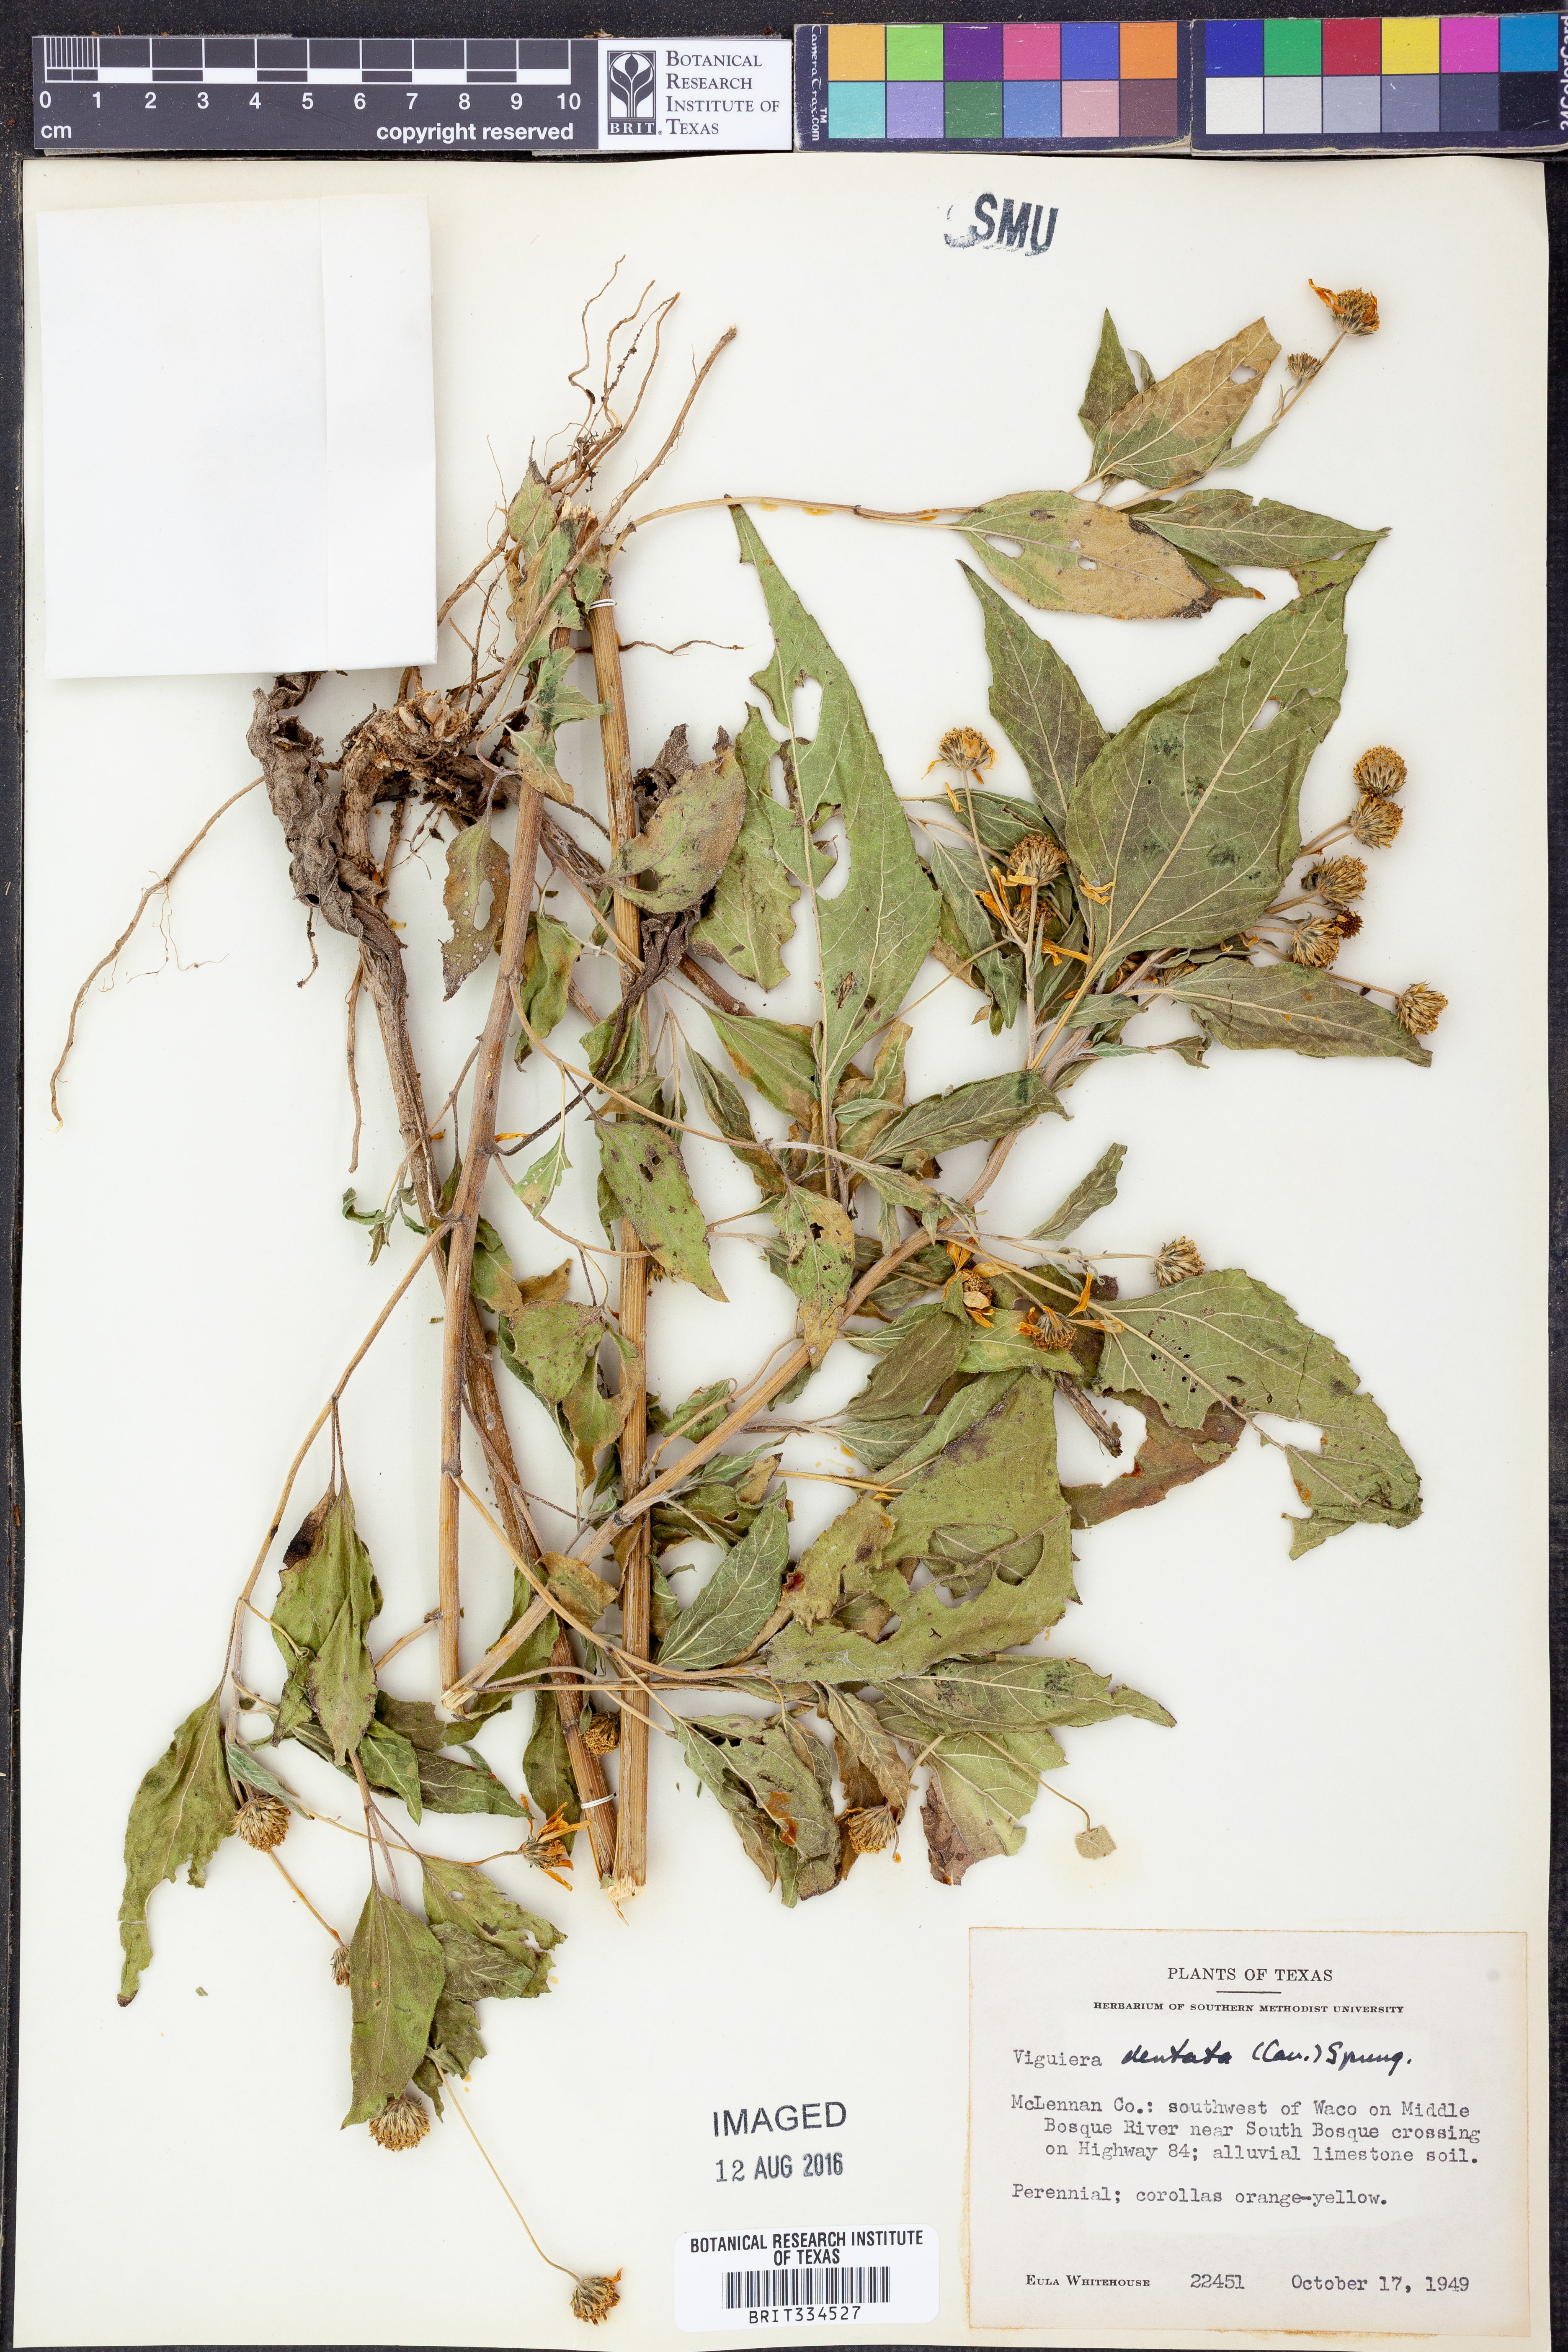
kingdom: Plantae
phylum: Tracheophyta
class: Magnoliopsida
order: Asterales
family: Asteraceae
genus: Viguiera
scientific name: Viguiera dentata
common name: Toothleaf
